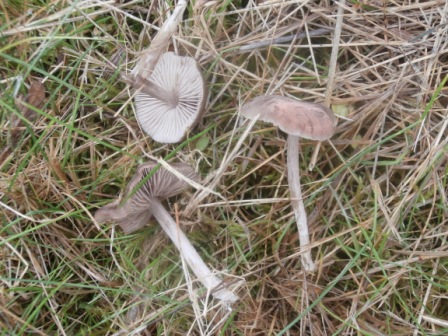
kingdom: Fungi
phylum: Basidiomycota
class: Agaricomycetes
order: Agaricales
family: Entolomataceae
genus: Entoloma
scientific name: Entoloma sericeum
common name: silkeglinsende rødblad
